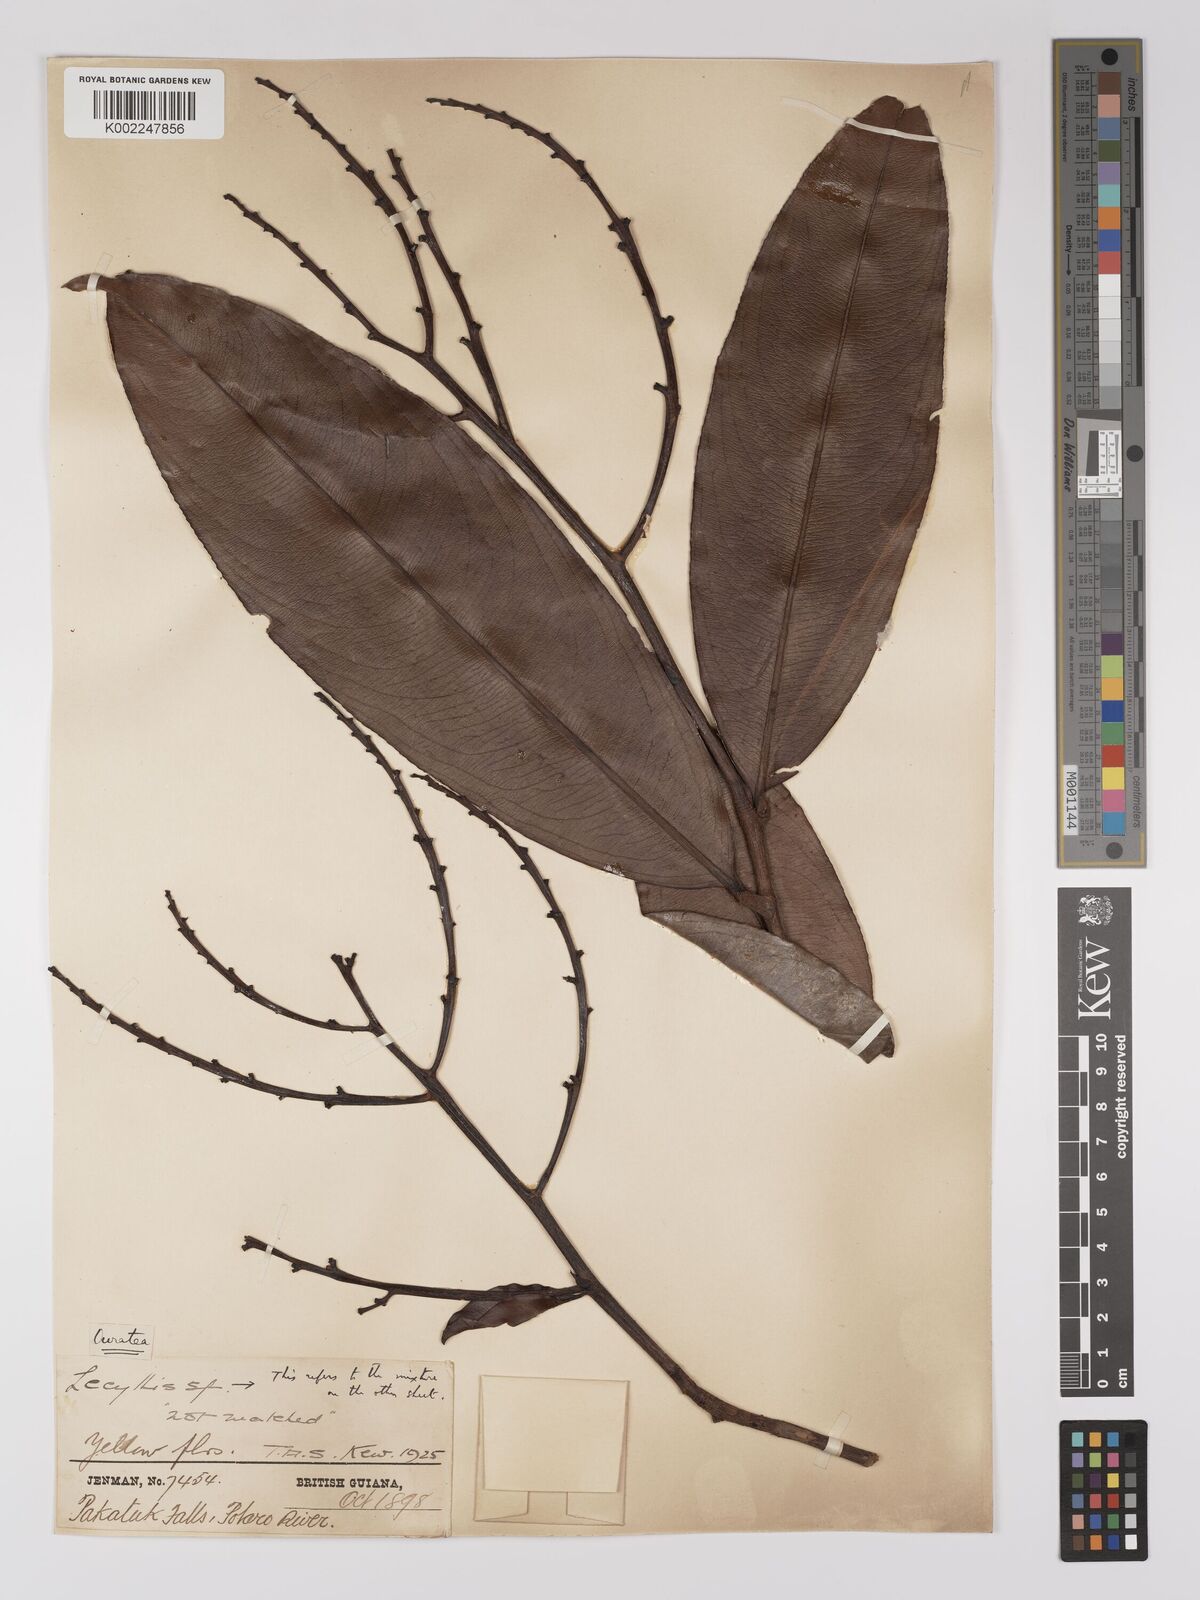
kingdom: Plantae
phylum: Tracheophyta
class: Magnoliopsida
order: Malpighiales
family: Ochnaceae
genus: Ouratea
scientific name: Ouratea
